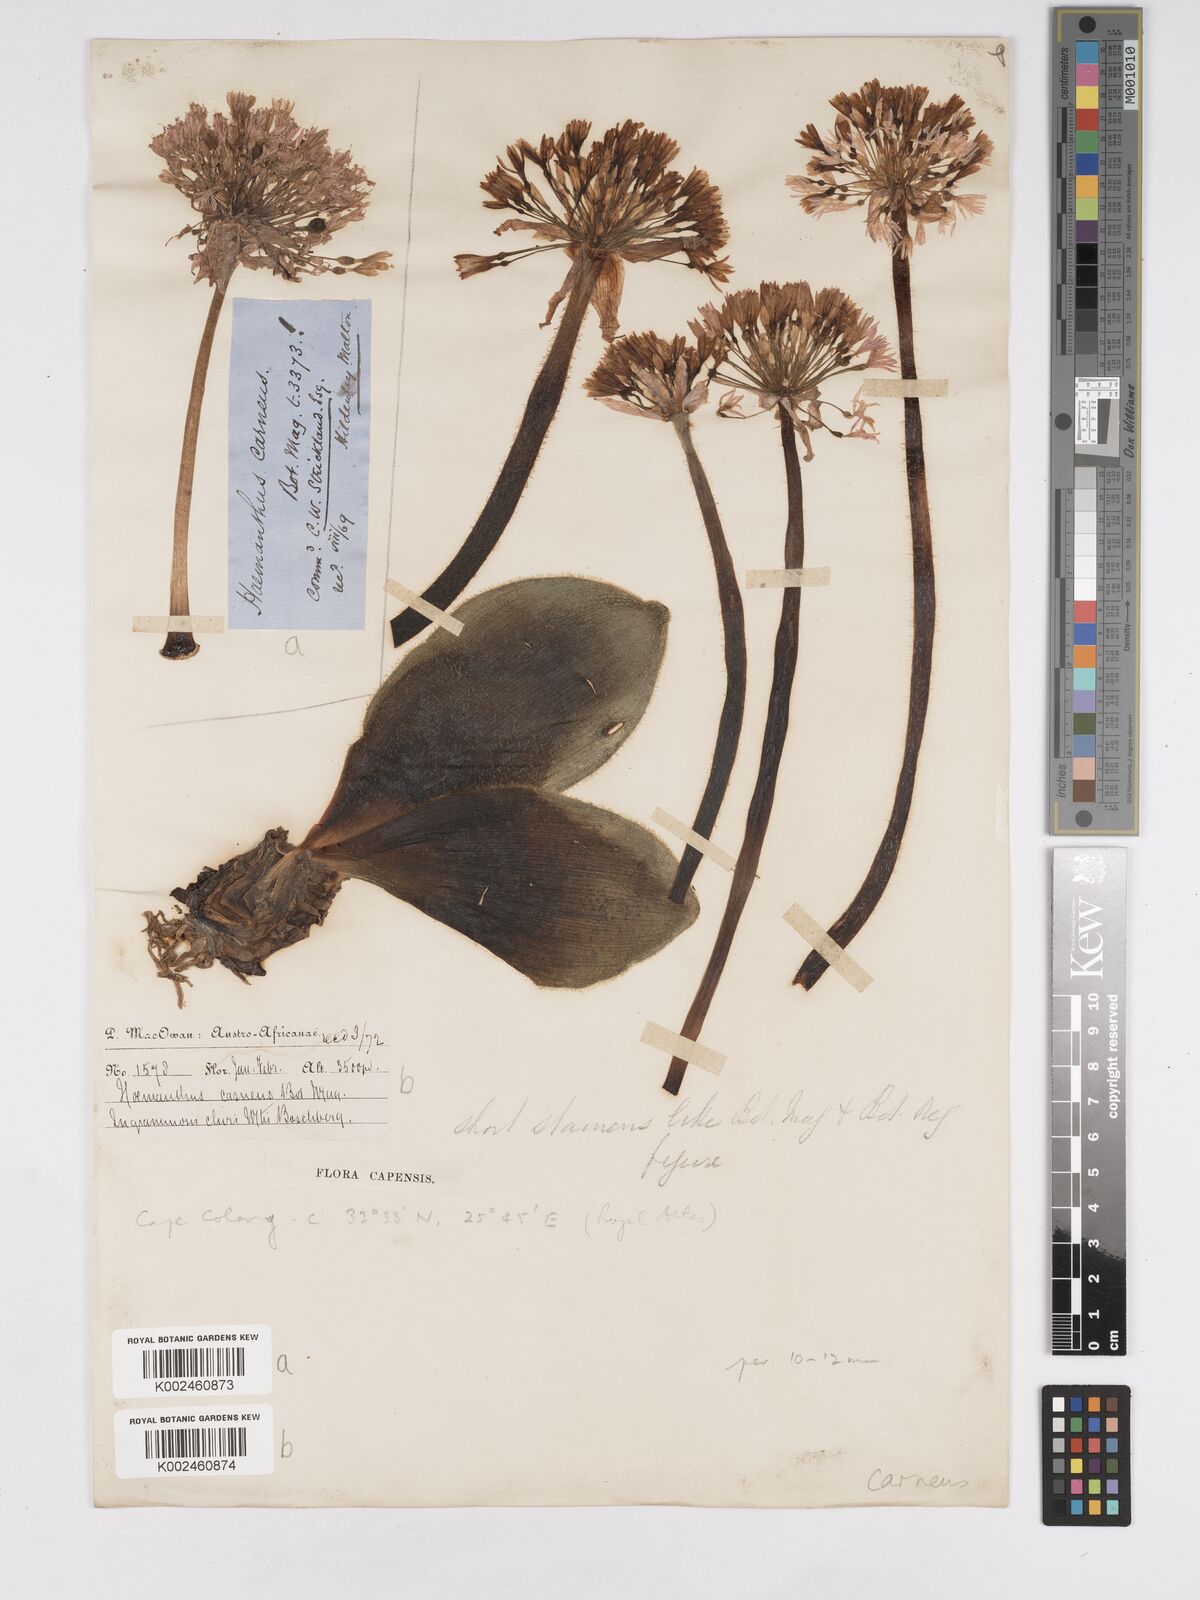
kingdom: Plantae
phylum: Tracheophyta
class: Liliopsida
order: Asparagales
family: Amaryllidaceae
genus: Haemanthus
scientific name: Haemanthus carneus
